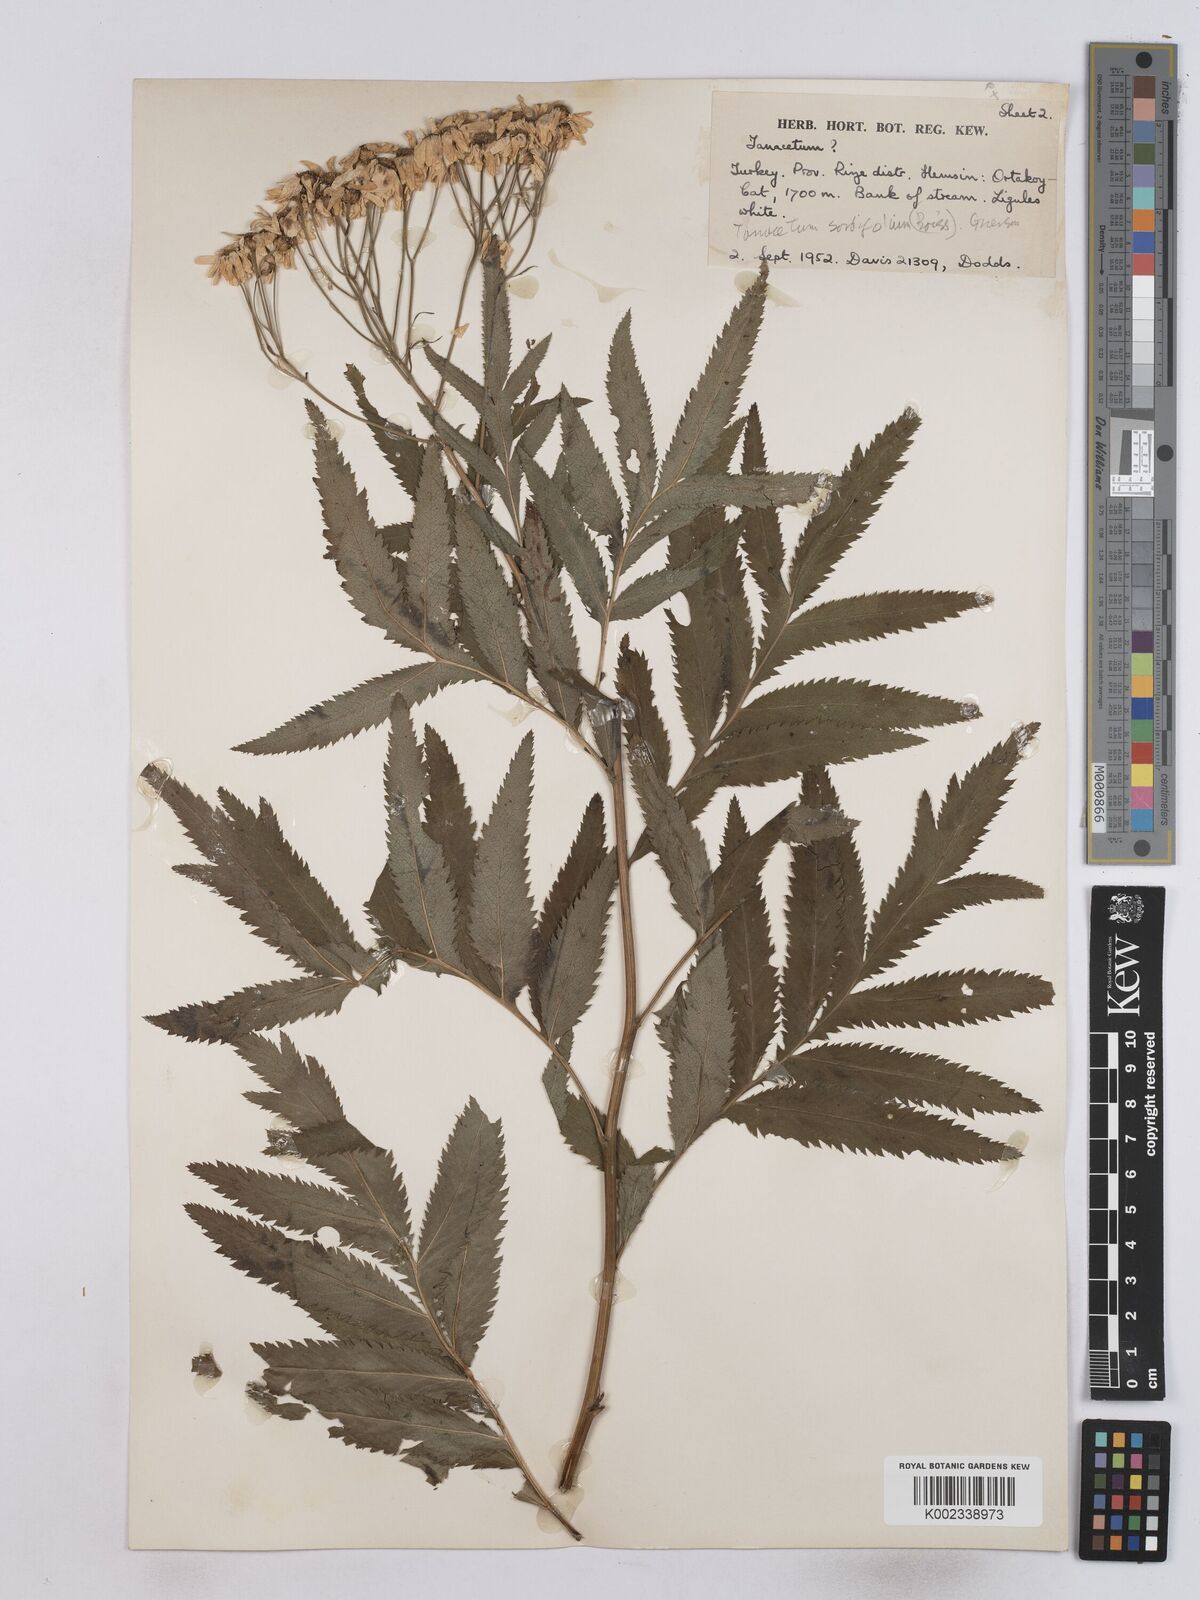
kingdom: Plantae
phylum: Tracheophyta
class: Magnoliopsida
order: Asterales
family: Asteraceae
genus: Tanacetum
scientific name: Tanacetum sorbifolium
